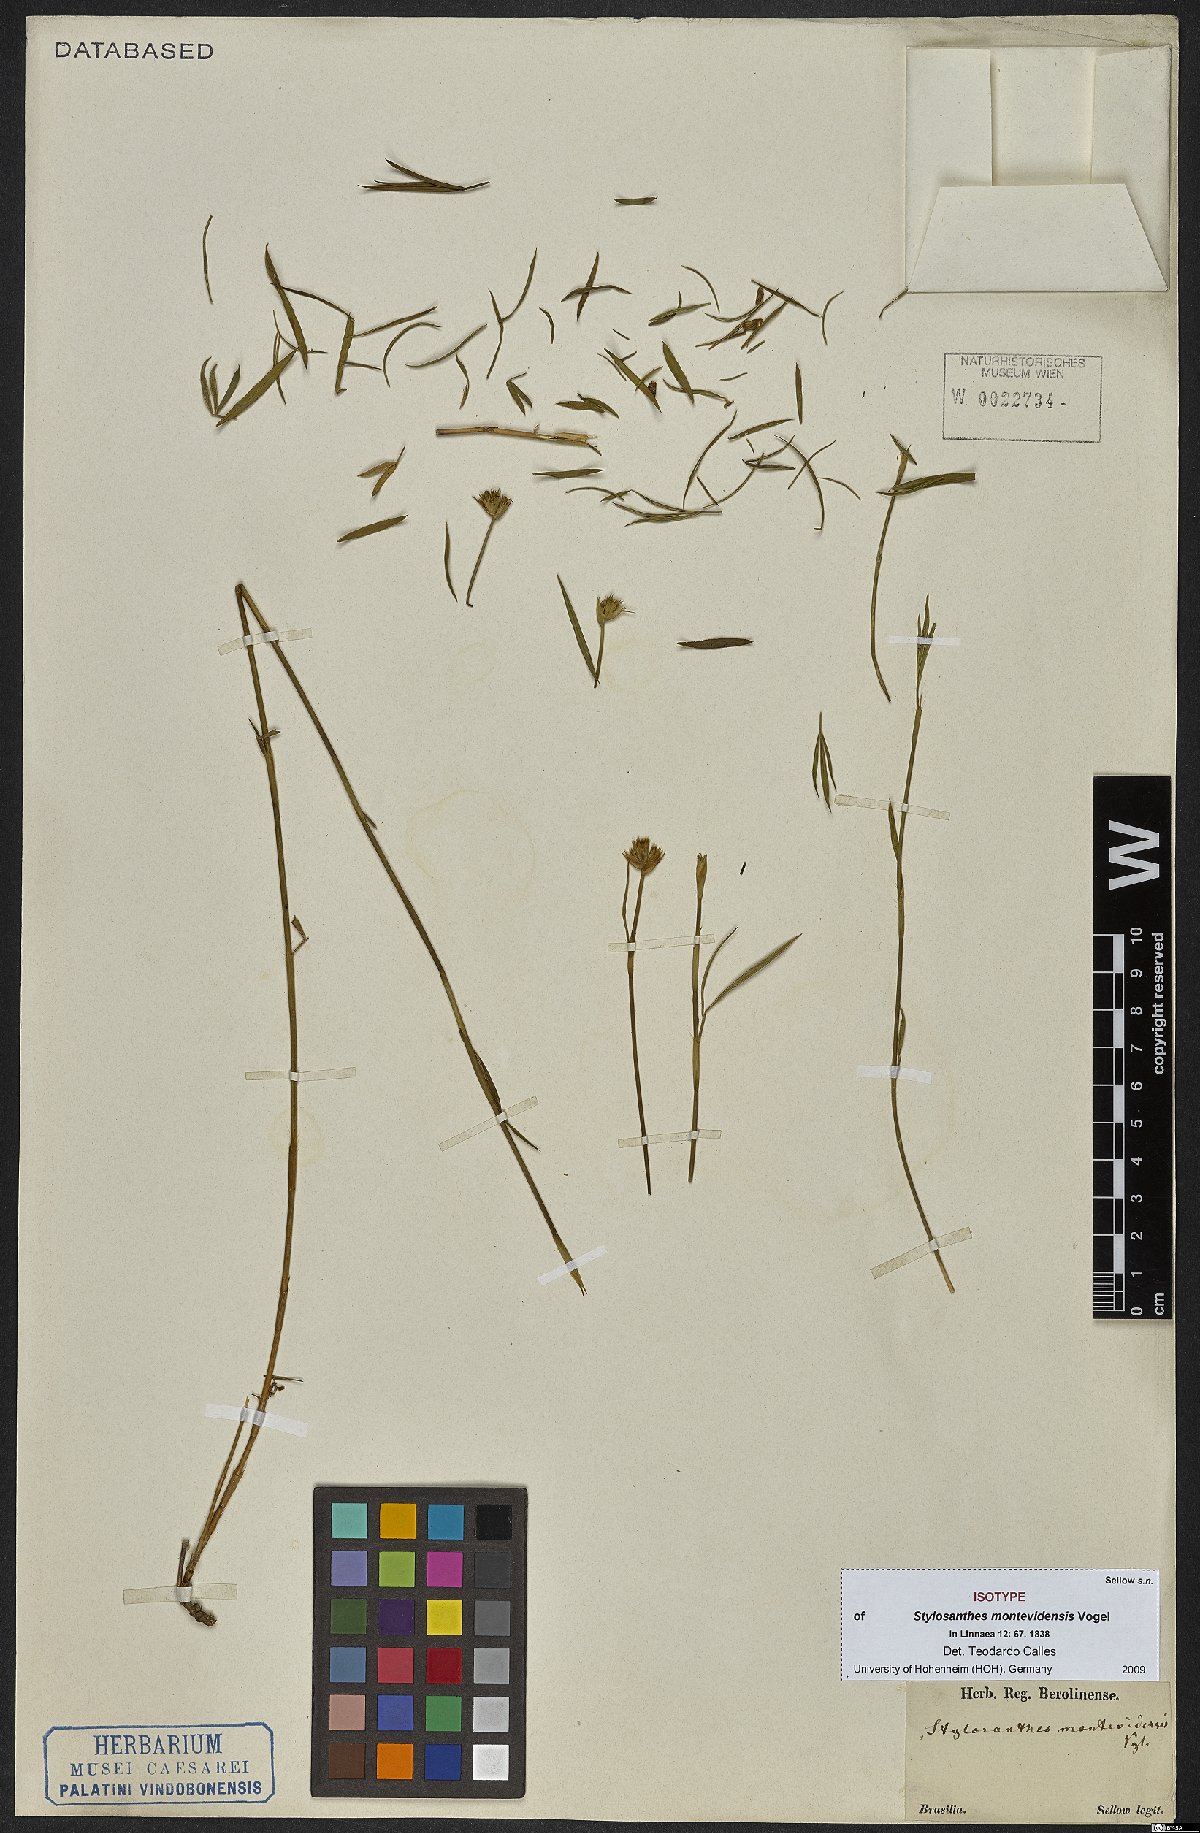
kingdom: Plantae
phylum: Tracheophyta
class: Magnoliopsida
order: Fabales
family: Fabaceae
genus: Stylosanthes
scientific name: Stylosanthes montevidensis
